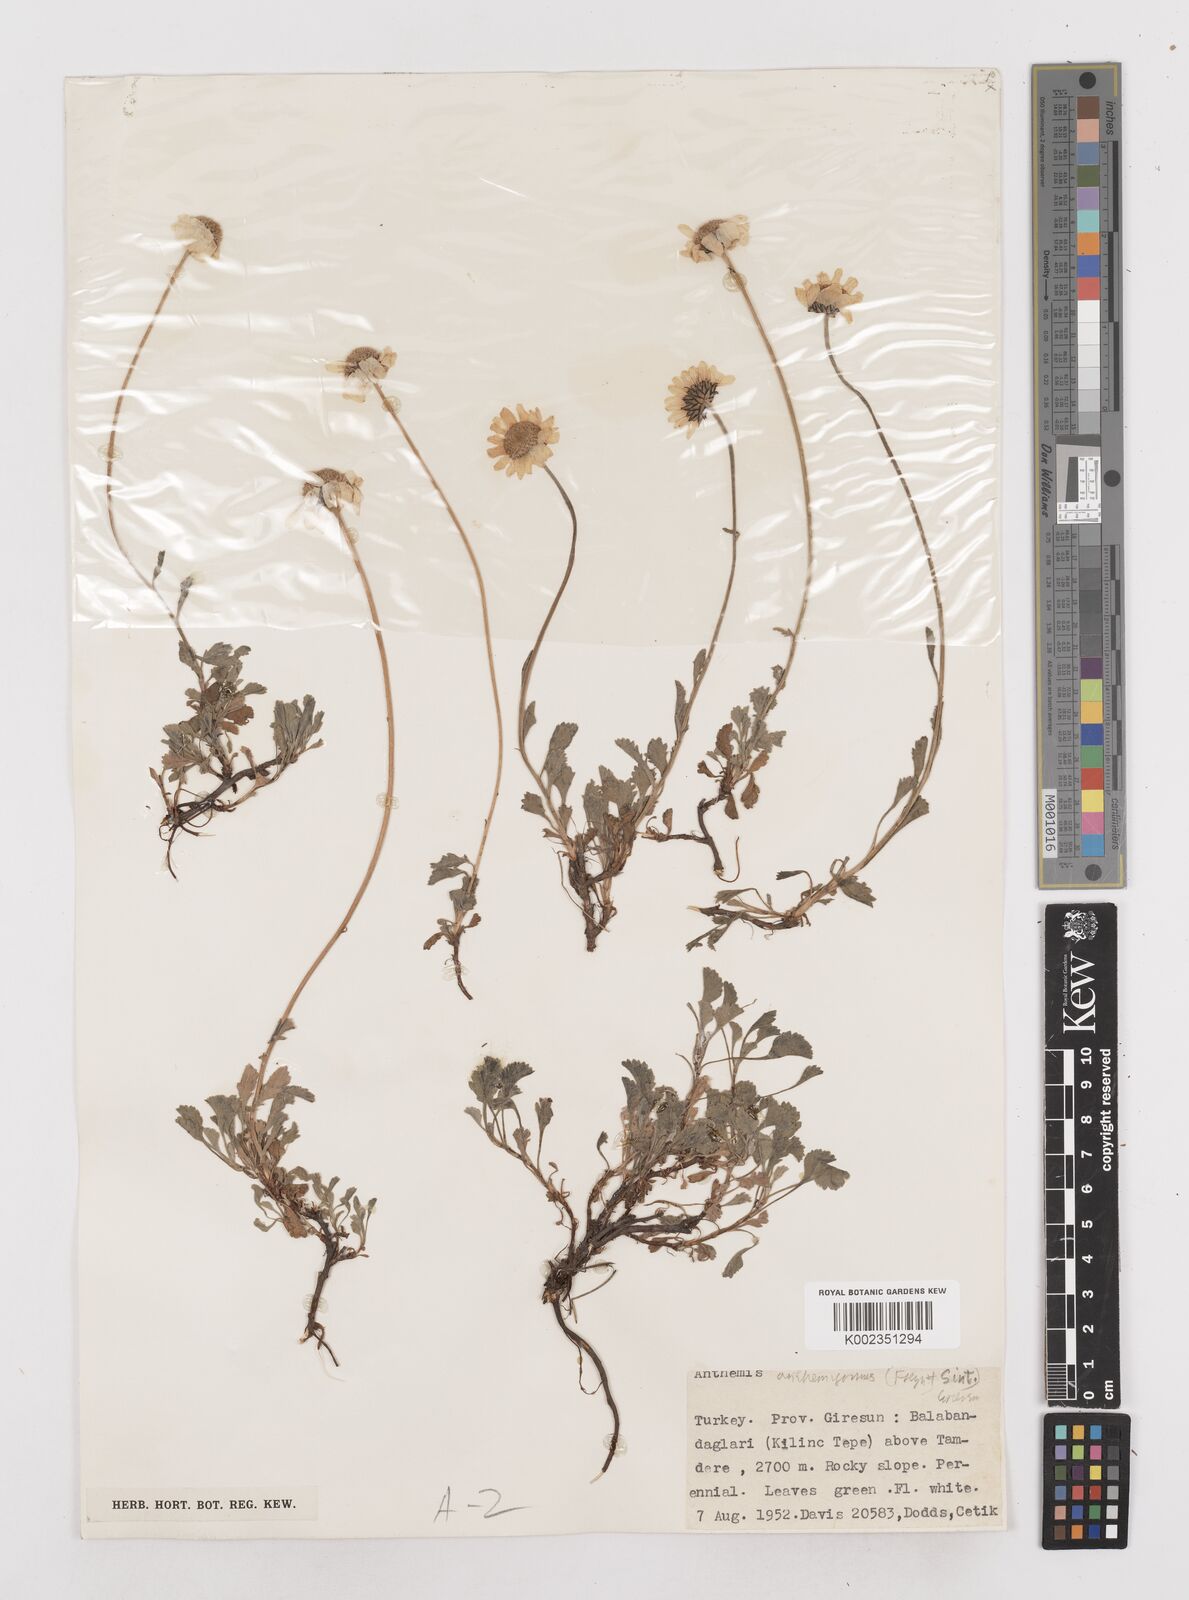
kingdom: Plantae
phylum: Tracheophyta
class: Magnoliopsida
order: Asterales
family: Asteraceae
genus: Anthemis
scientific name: Anthemis anthemiformis
